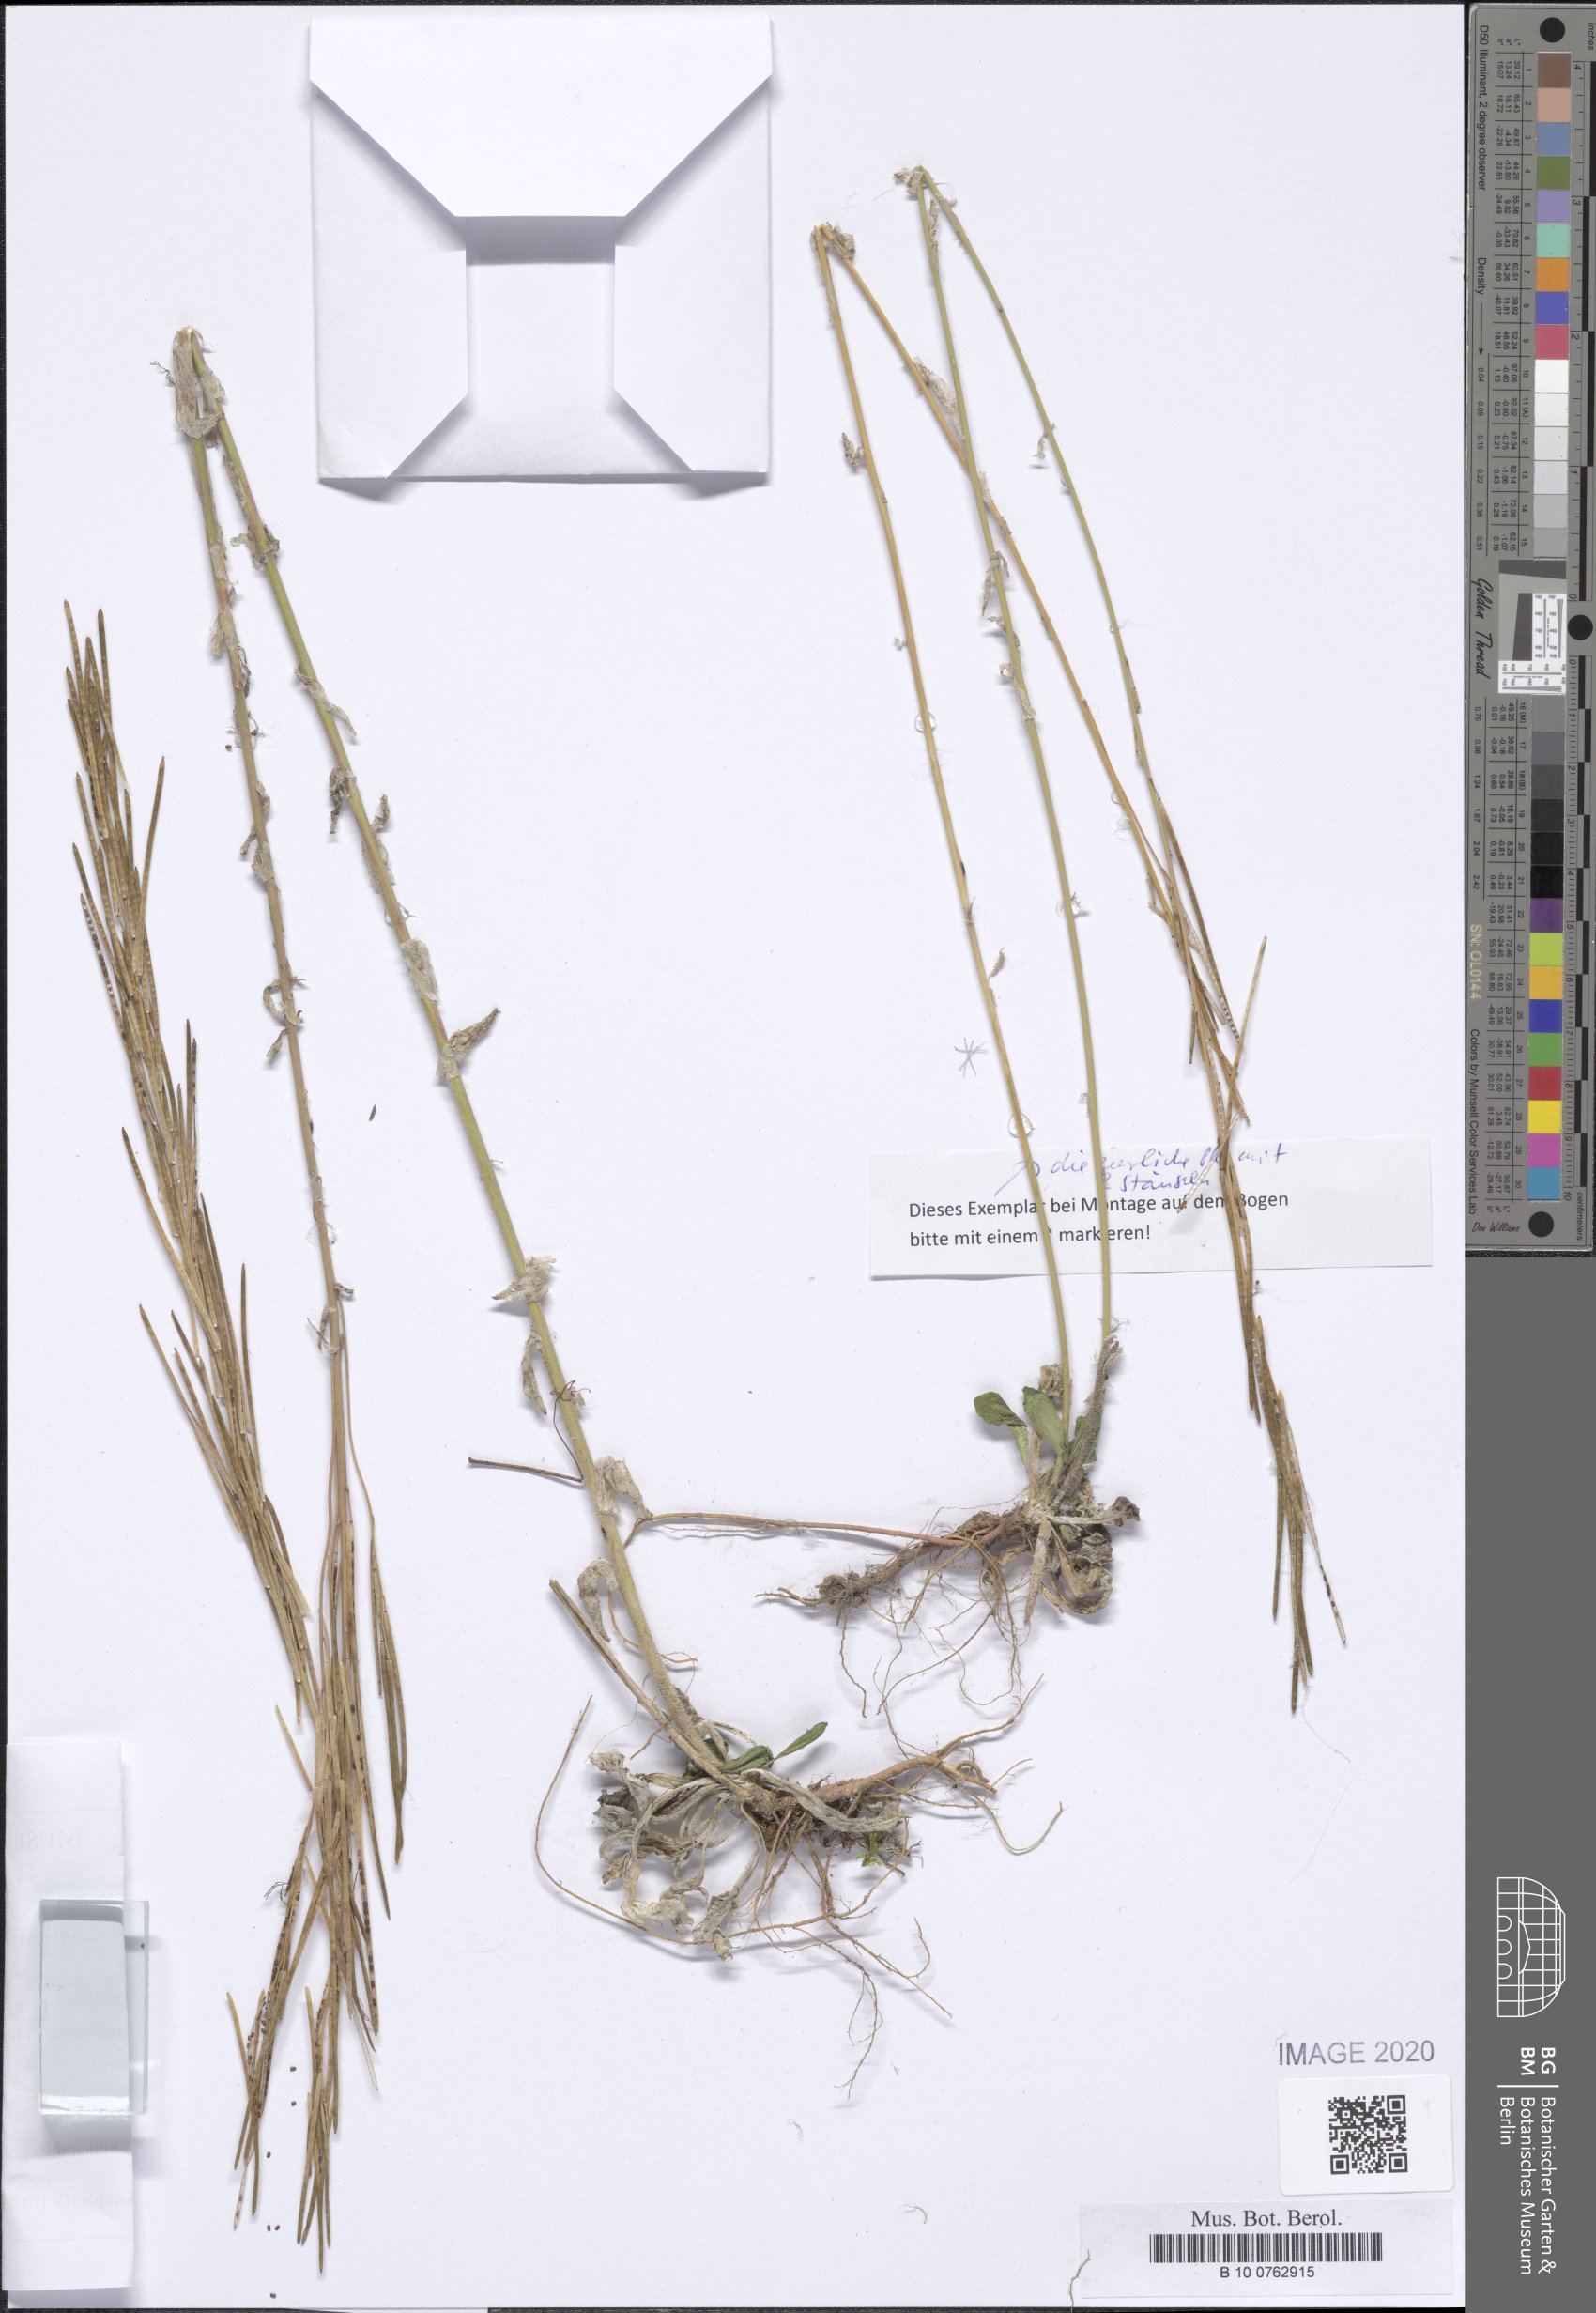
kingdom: Plantae
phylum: Tracheophyta
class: Magnoliopsida
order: Brassicales
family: Brassicaceae
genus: Arabis
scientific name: Arabis sagittata
